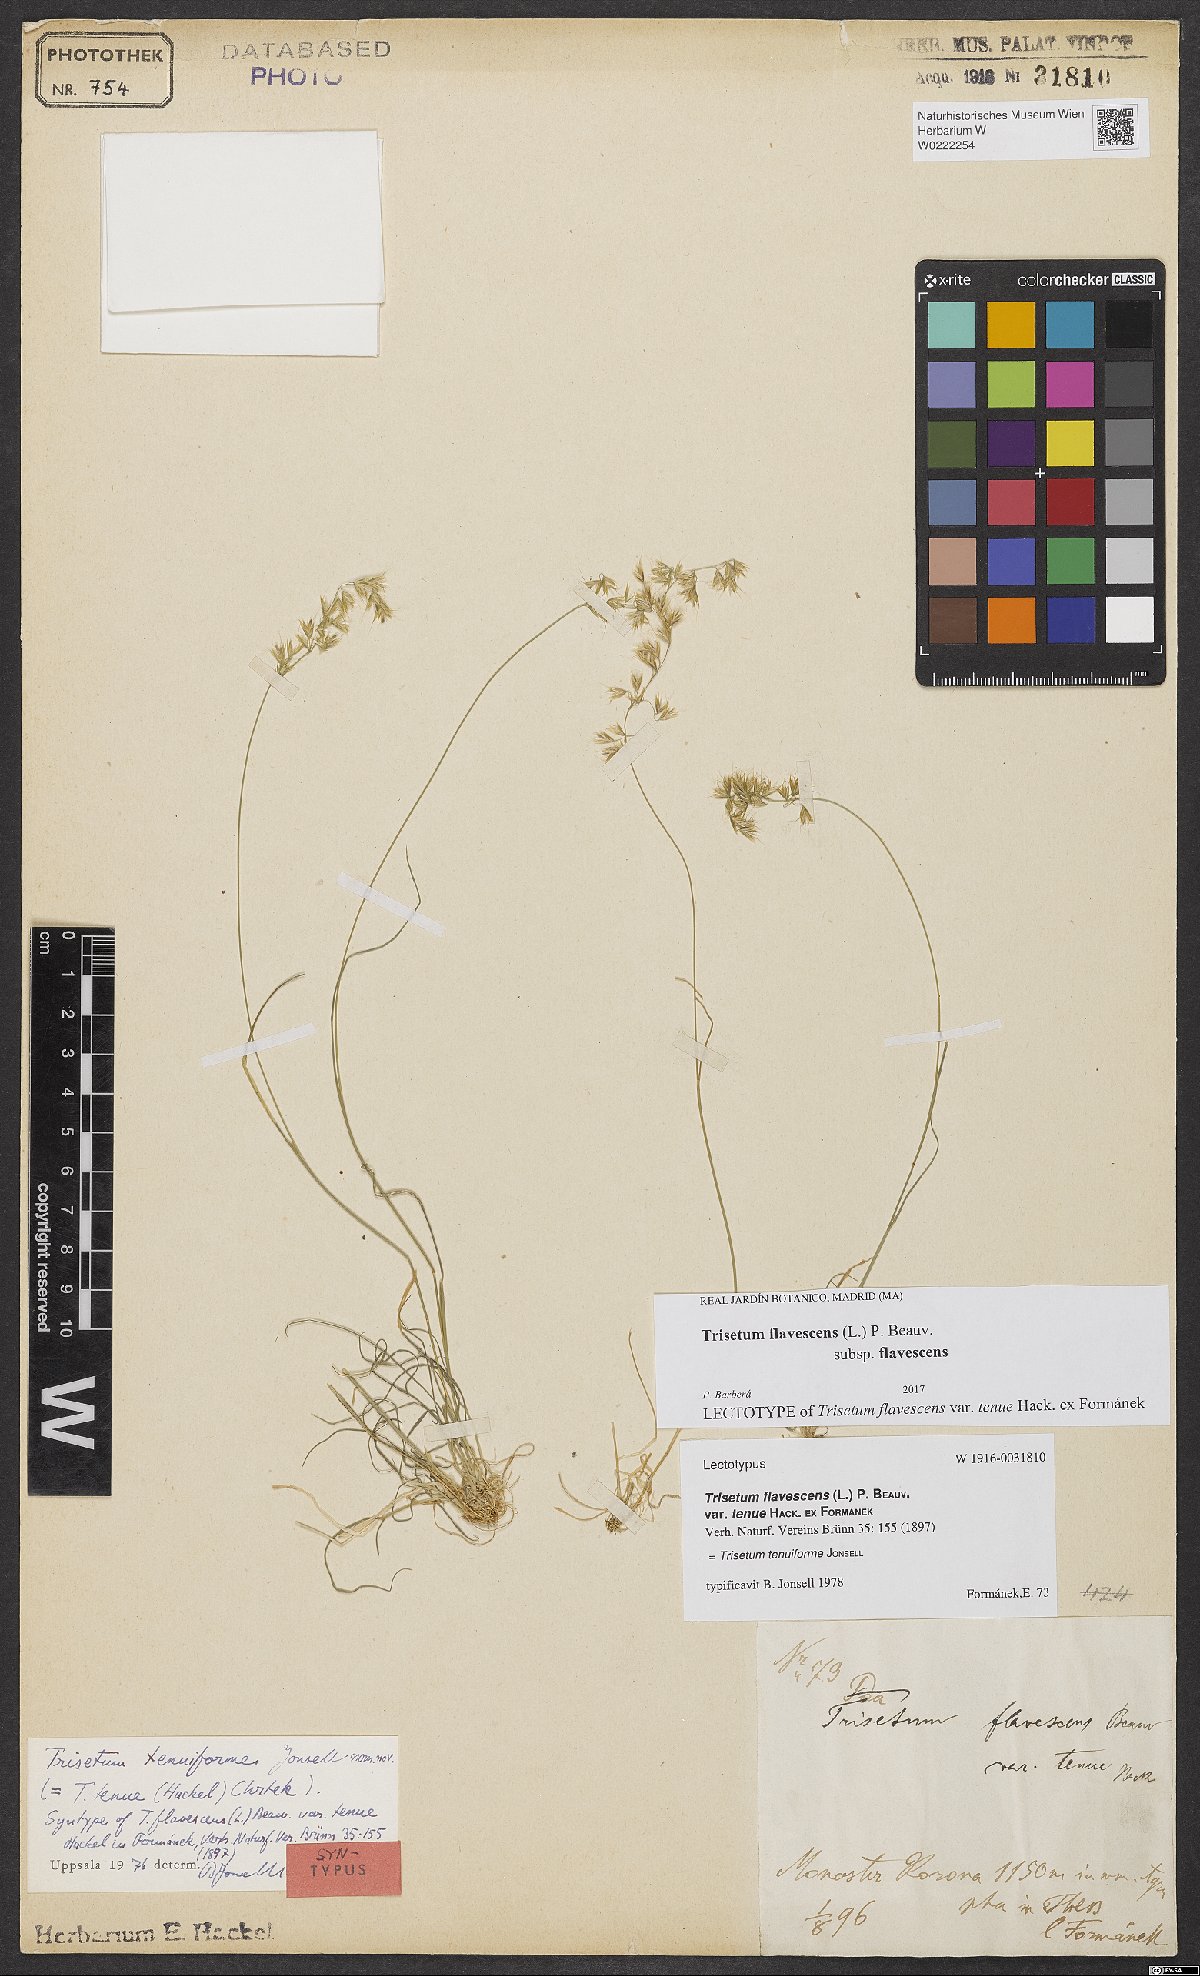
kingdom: Plantae
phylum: Tracheophyta
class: Liliopsida
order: Poales
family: Poaceae
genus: Trisetum
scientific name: Trisetum flavescens
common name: Yellow oat-grass
